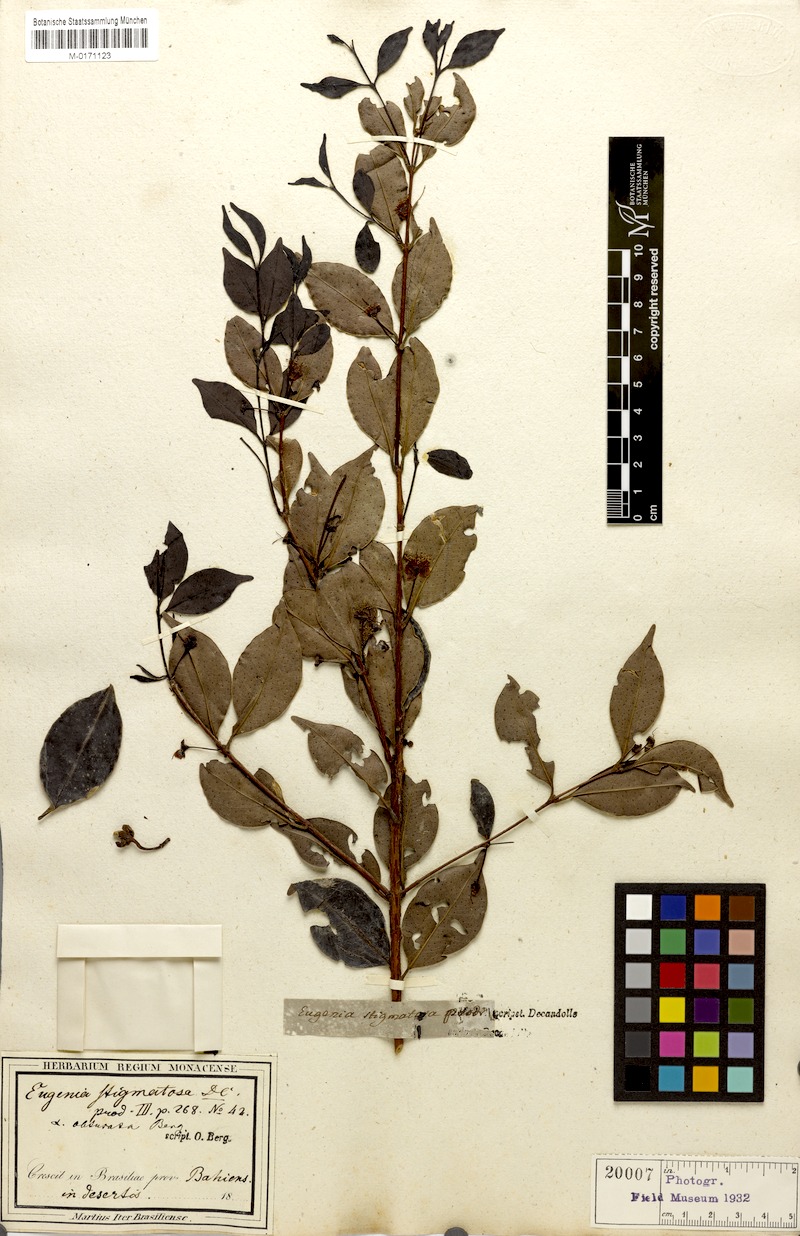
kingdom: Plantae
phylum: Tracheophyta
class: Magnoliopsida
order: Myrtales
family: Myrtaceae
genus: Eugenia
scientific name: Eugenia stigmatosa
